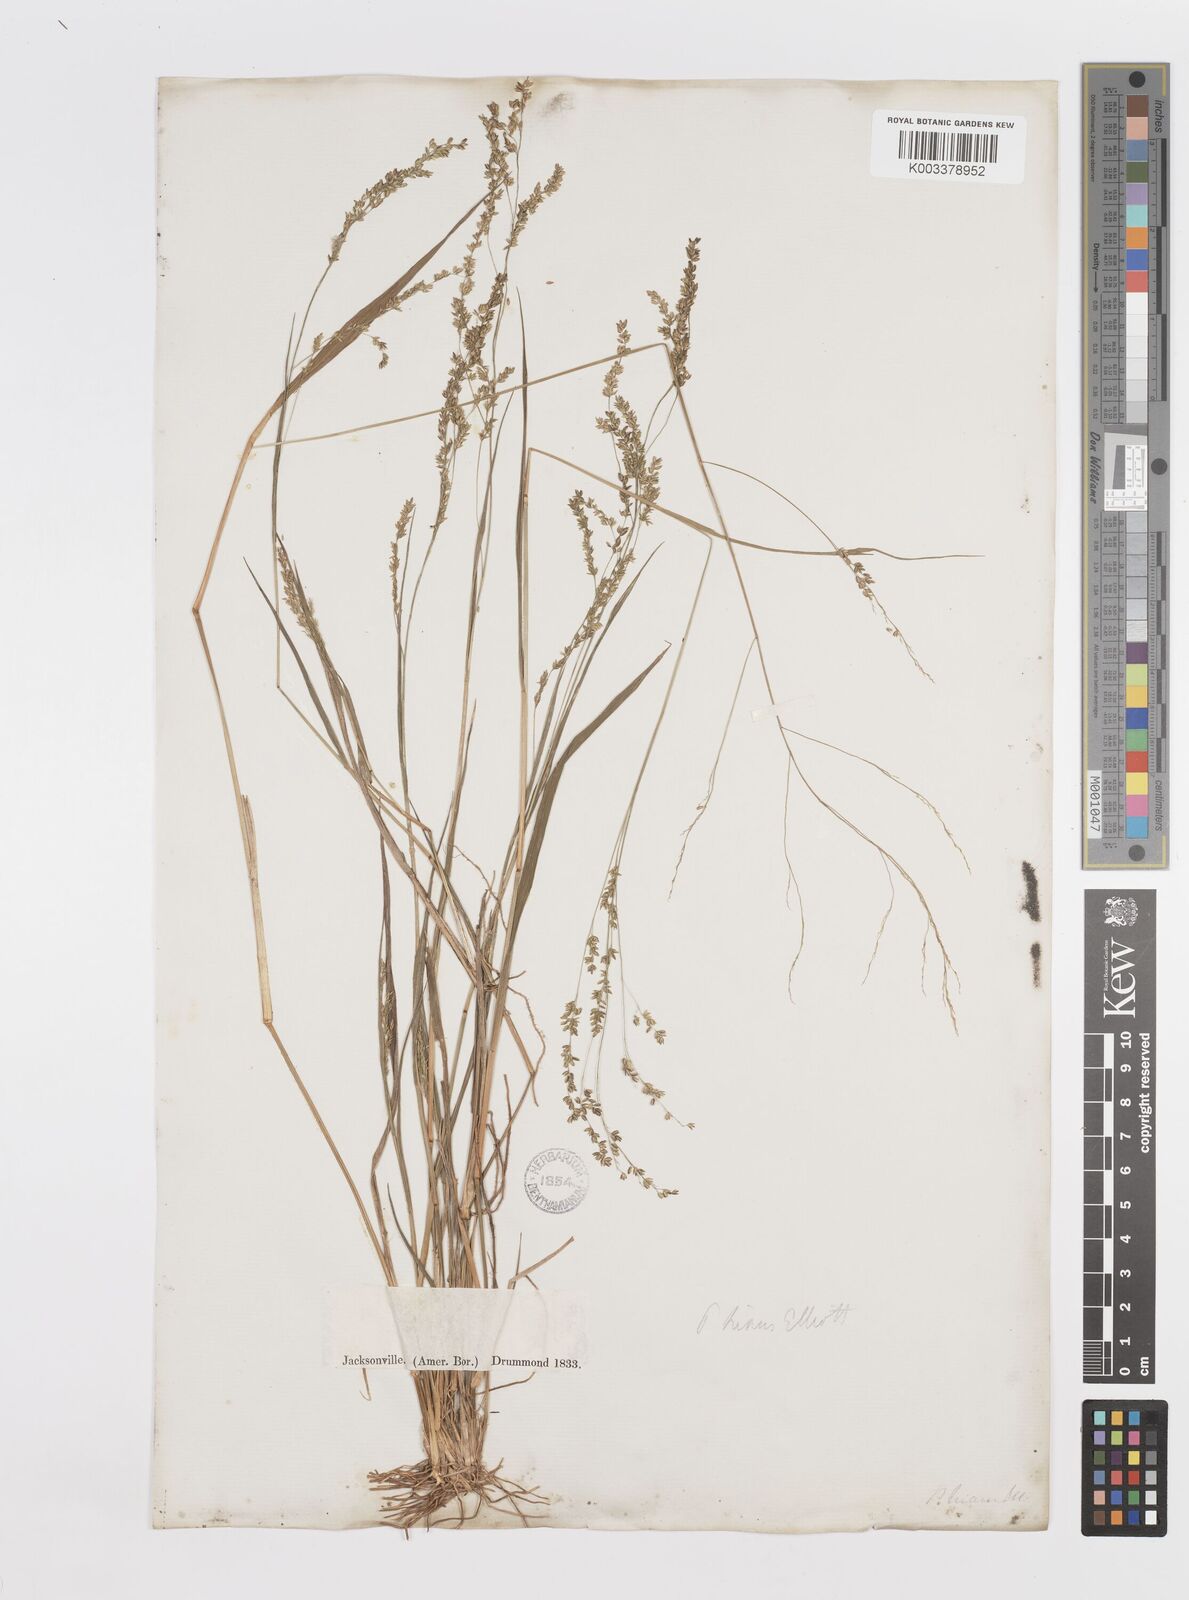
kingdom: Plantae
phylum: Tracheophyta
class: Liliopsida
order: Poales
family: Poaceae
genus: Steinchisma
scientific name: Steinchisma hians
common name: Gaping panic grass
